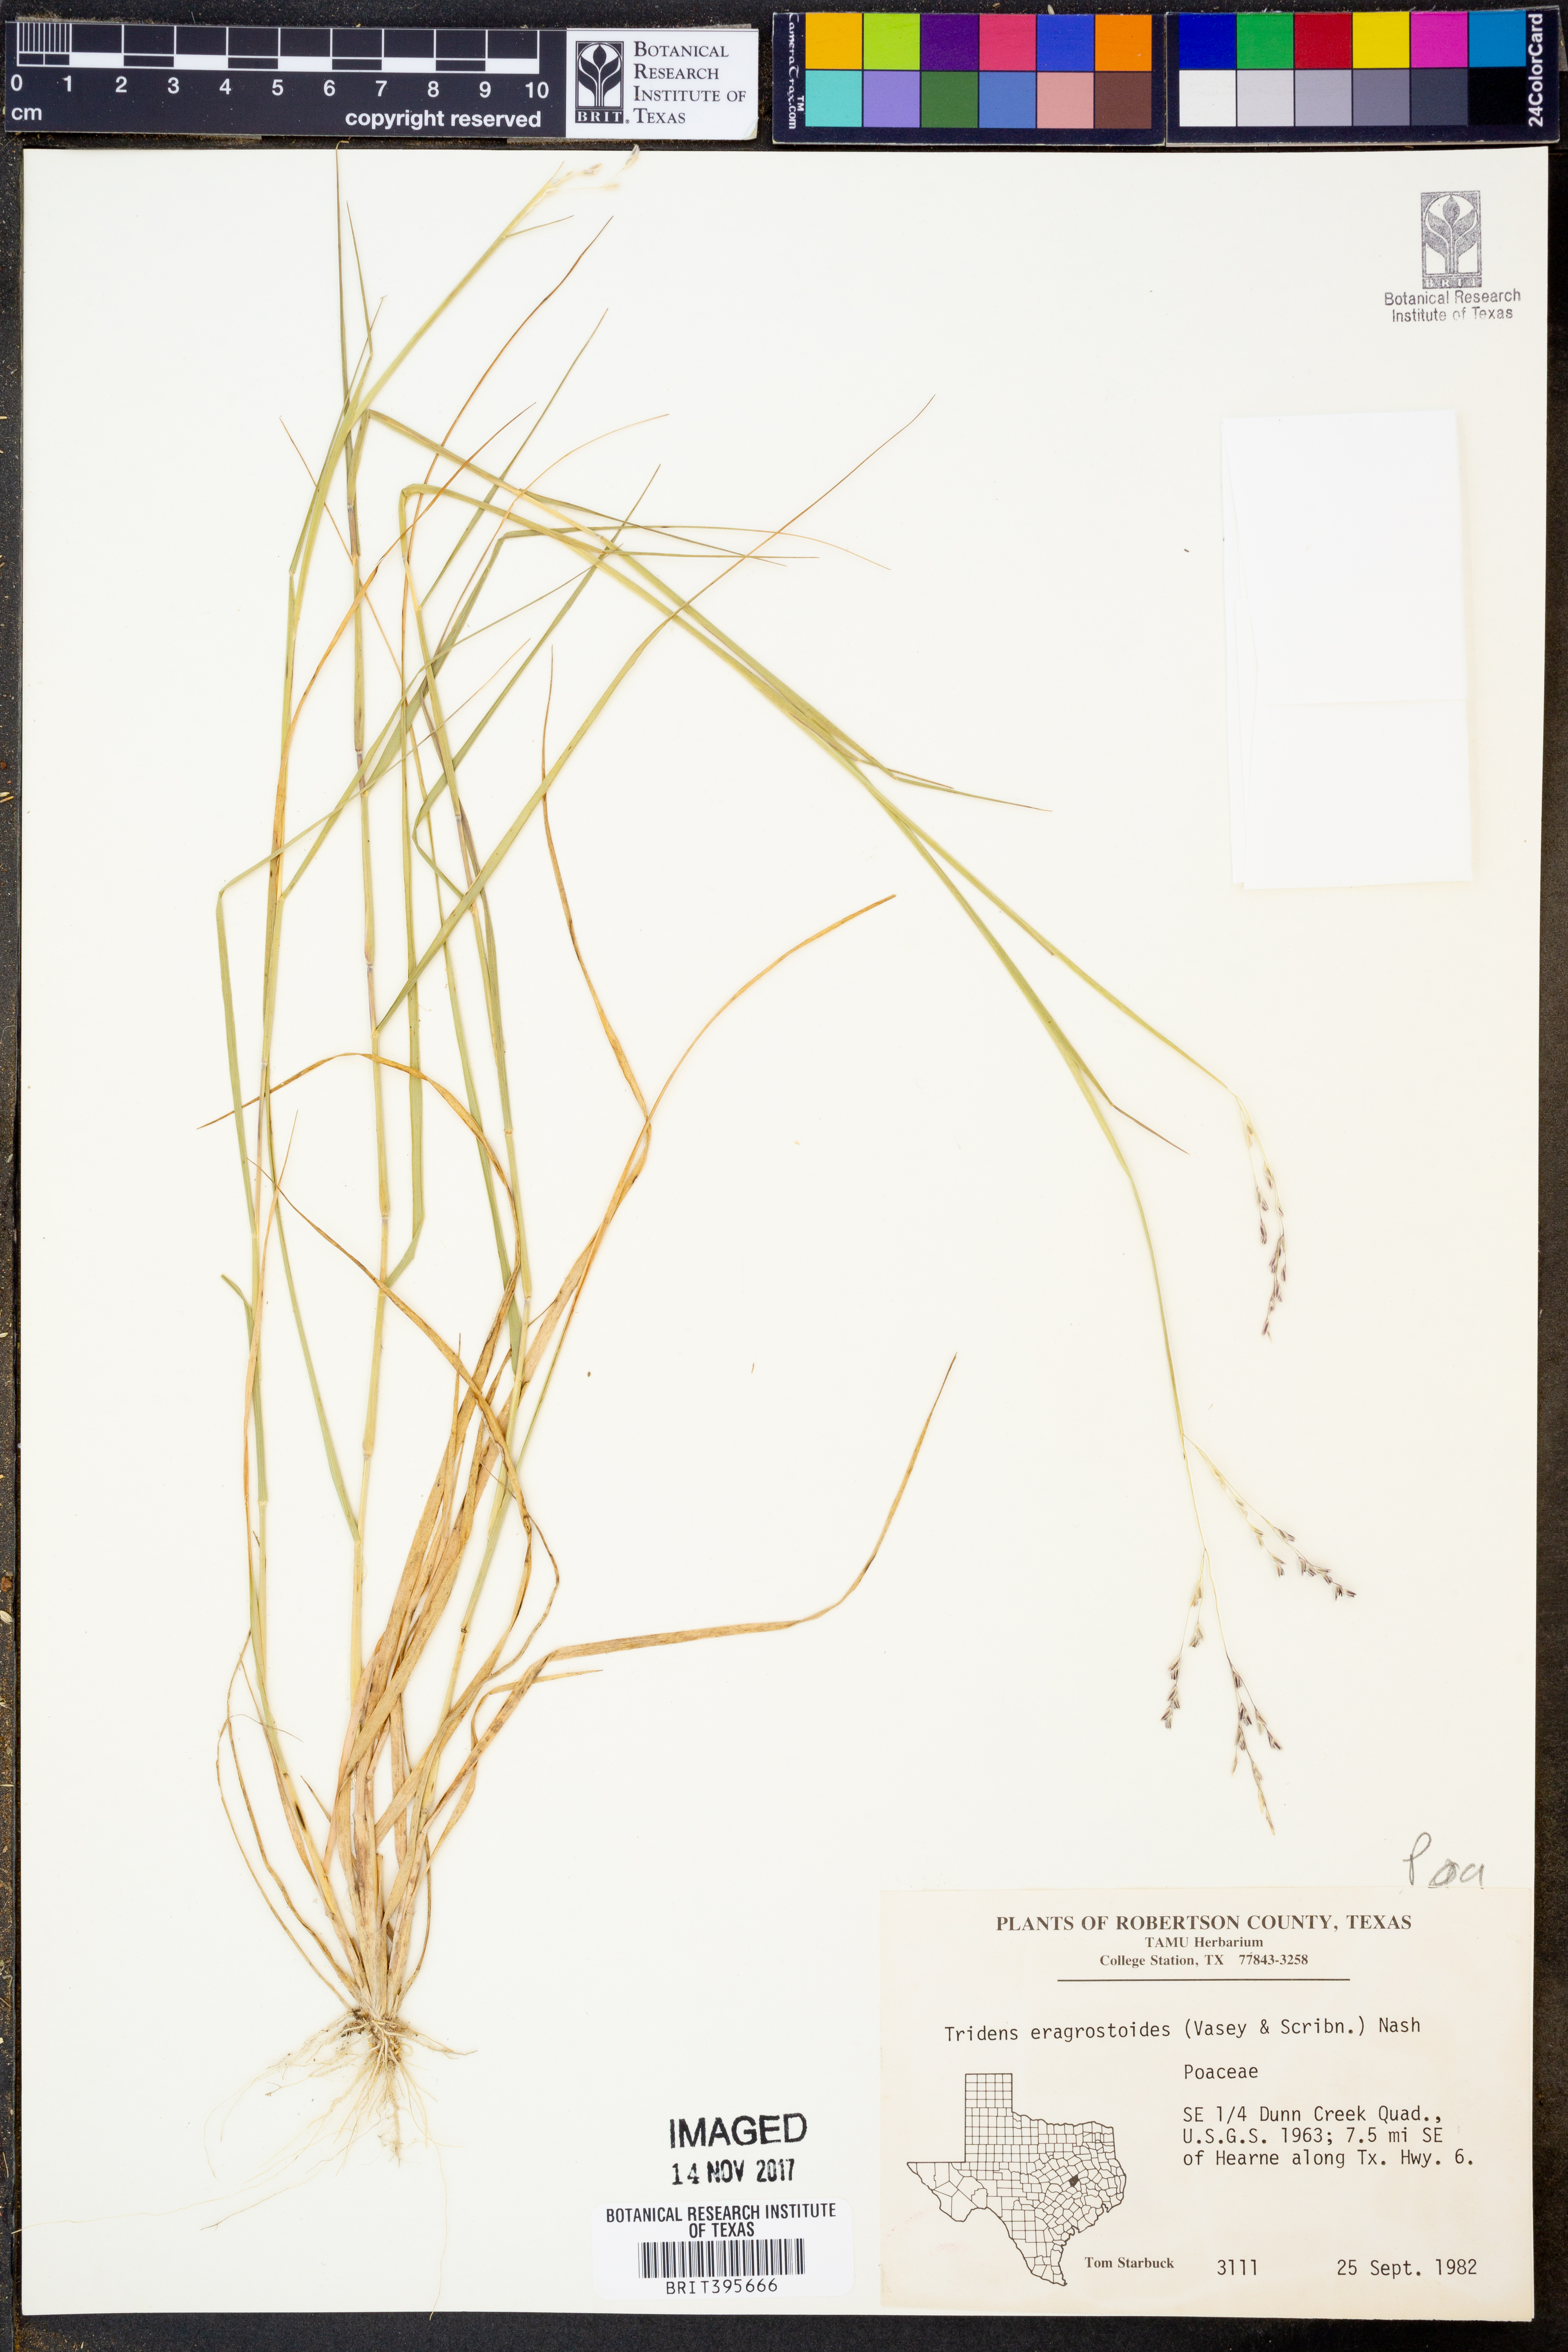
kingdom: Plantae
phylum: Tracheophyta
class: Liliopsida
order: Poales
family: Poaceae
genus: Triplasiella
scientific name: Triplasiella eragrostoides
